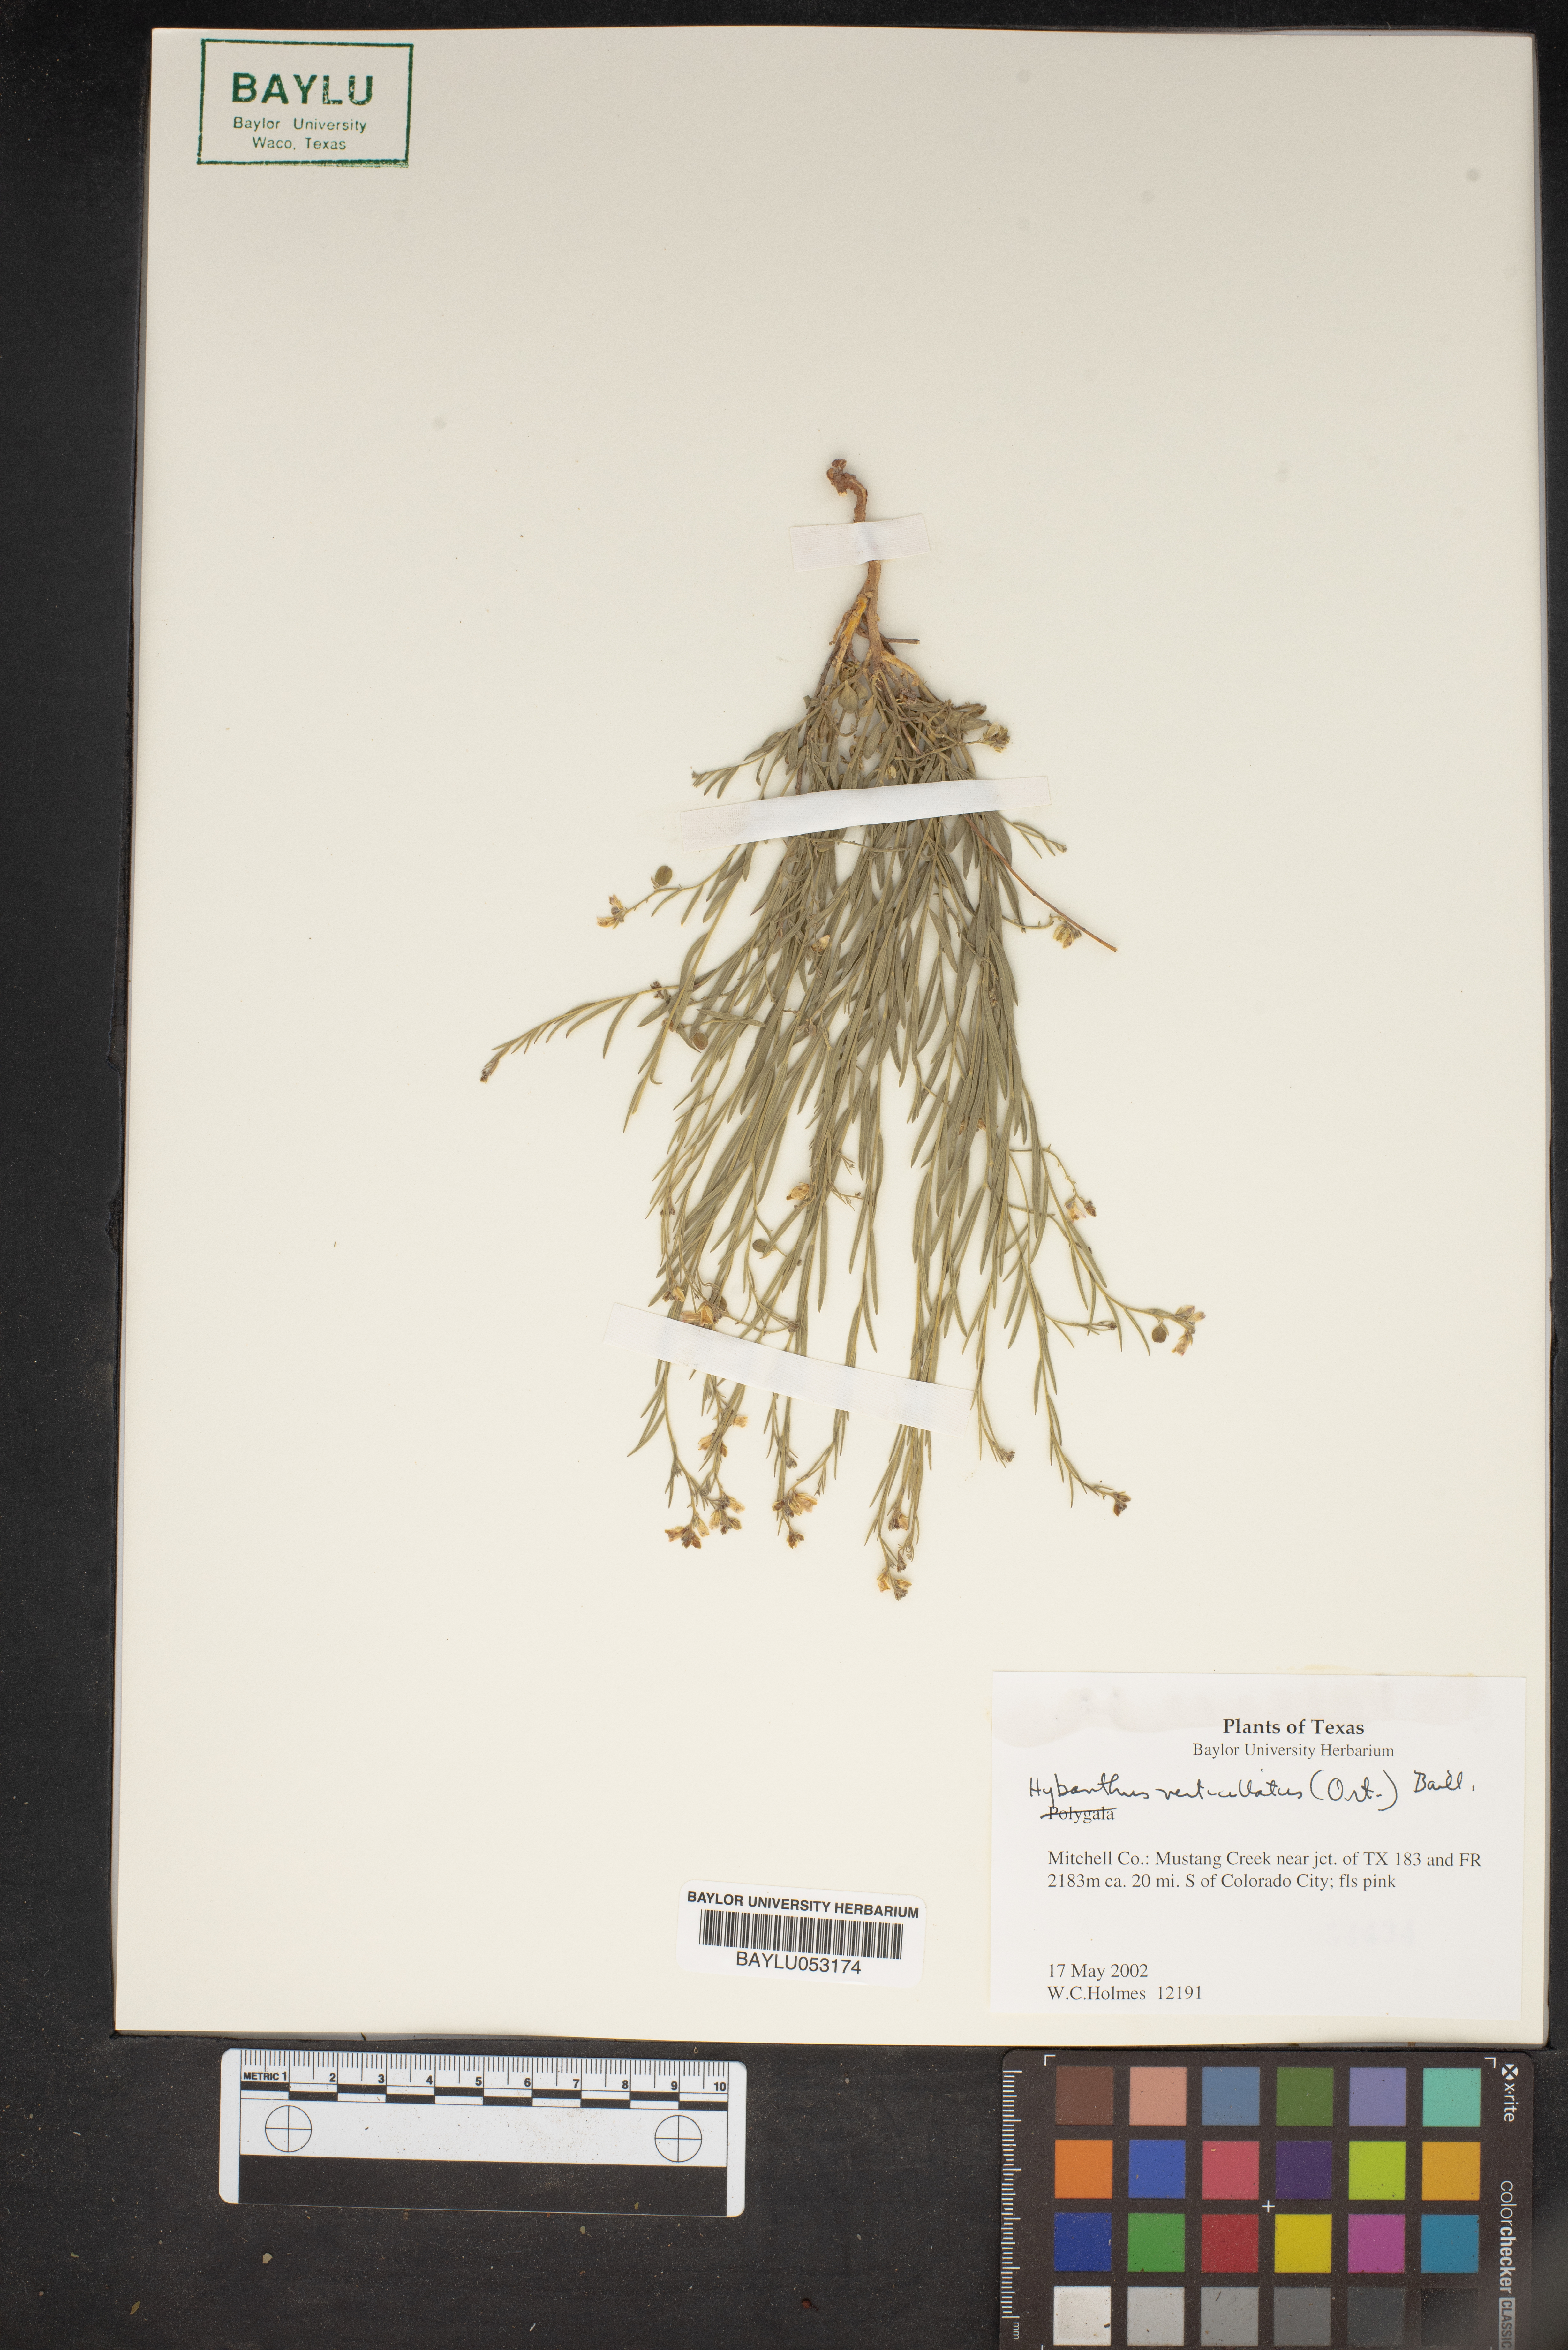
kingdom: Plantae
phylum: Tracheophyta
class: Magnoliopsida
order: Malpighiales
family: Violaceae
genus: Pombalia
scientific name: Pombalia verticillata
